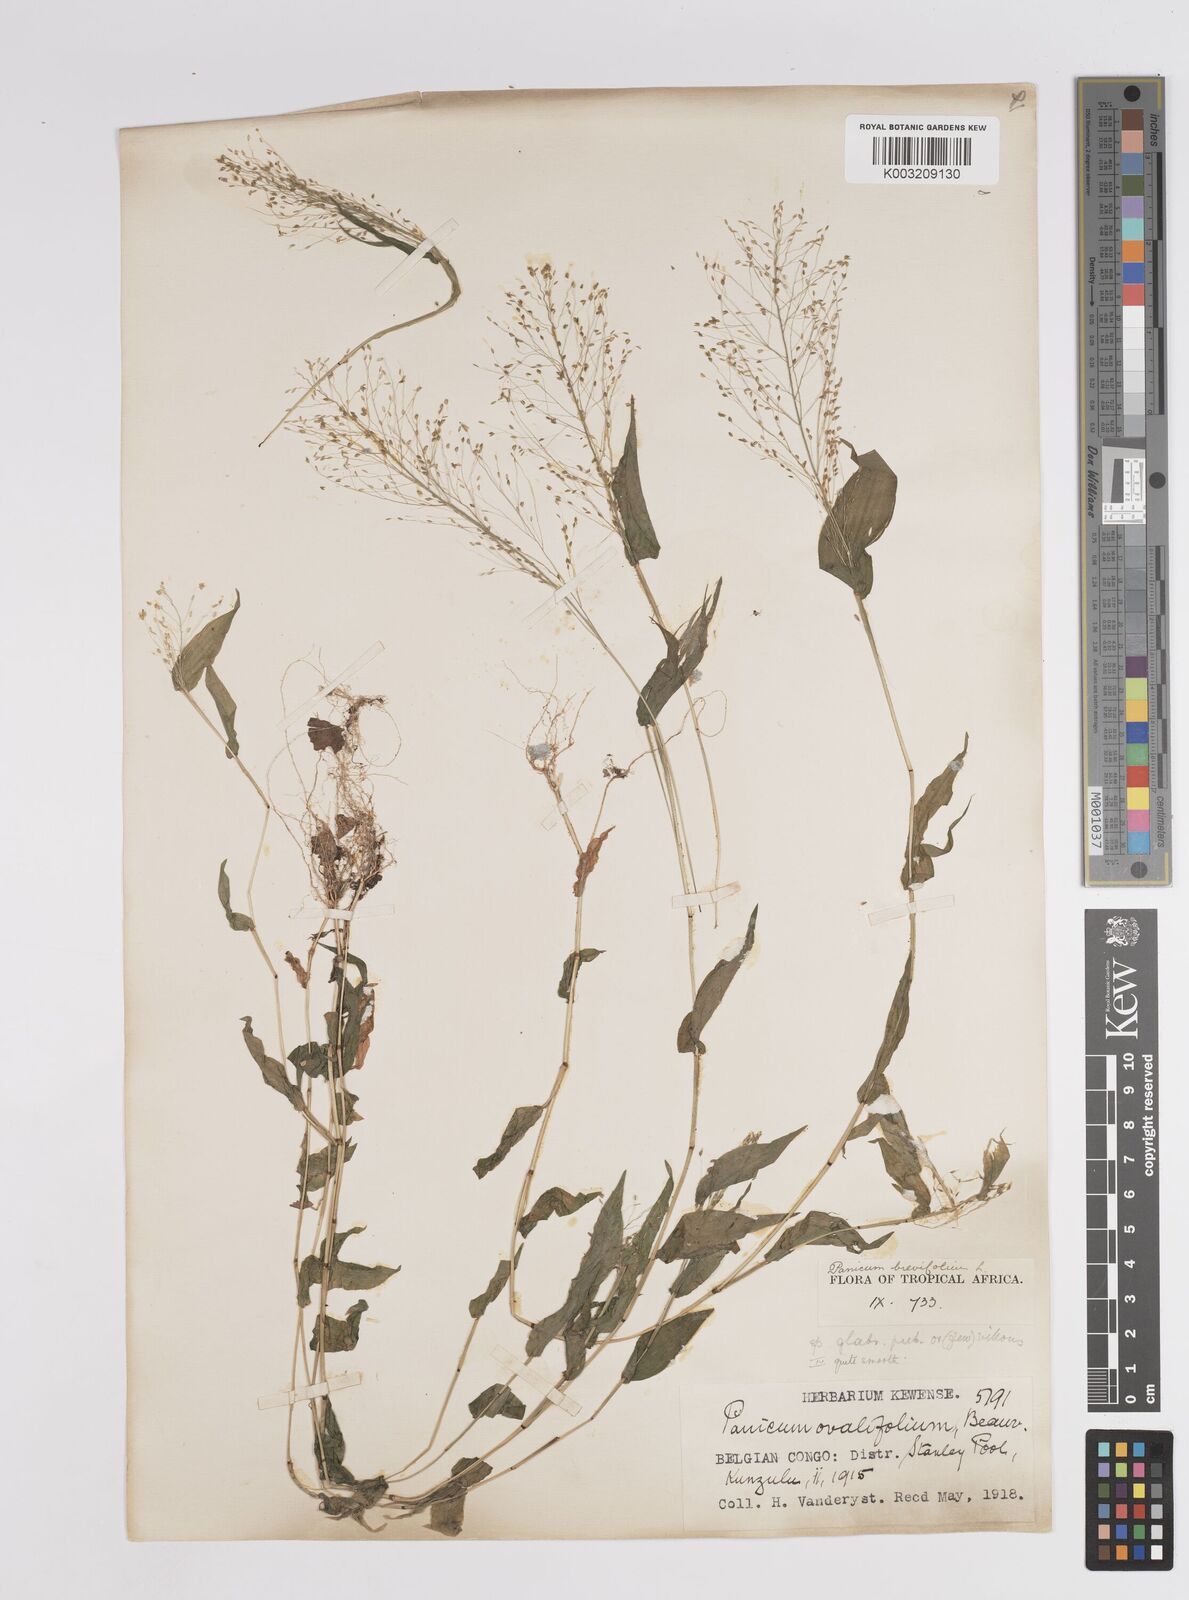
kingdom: Plantae
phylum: Tracheophyta
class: Liliopsida
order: Poales
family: Poaceae
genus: Panicum
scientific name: Panicum brevifolium
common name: Shortleaf panic grass
